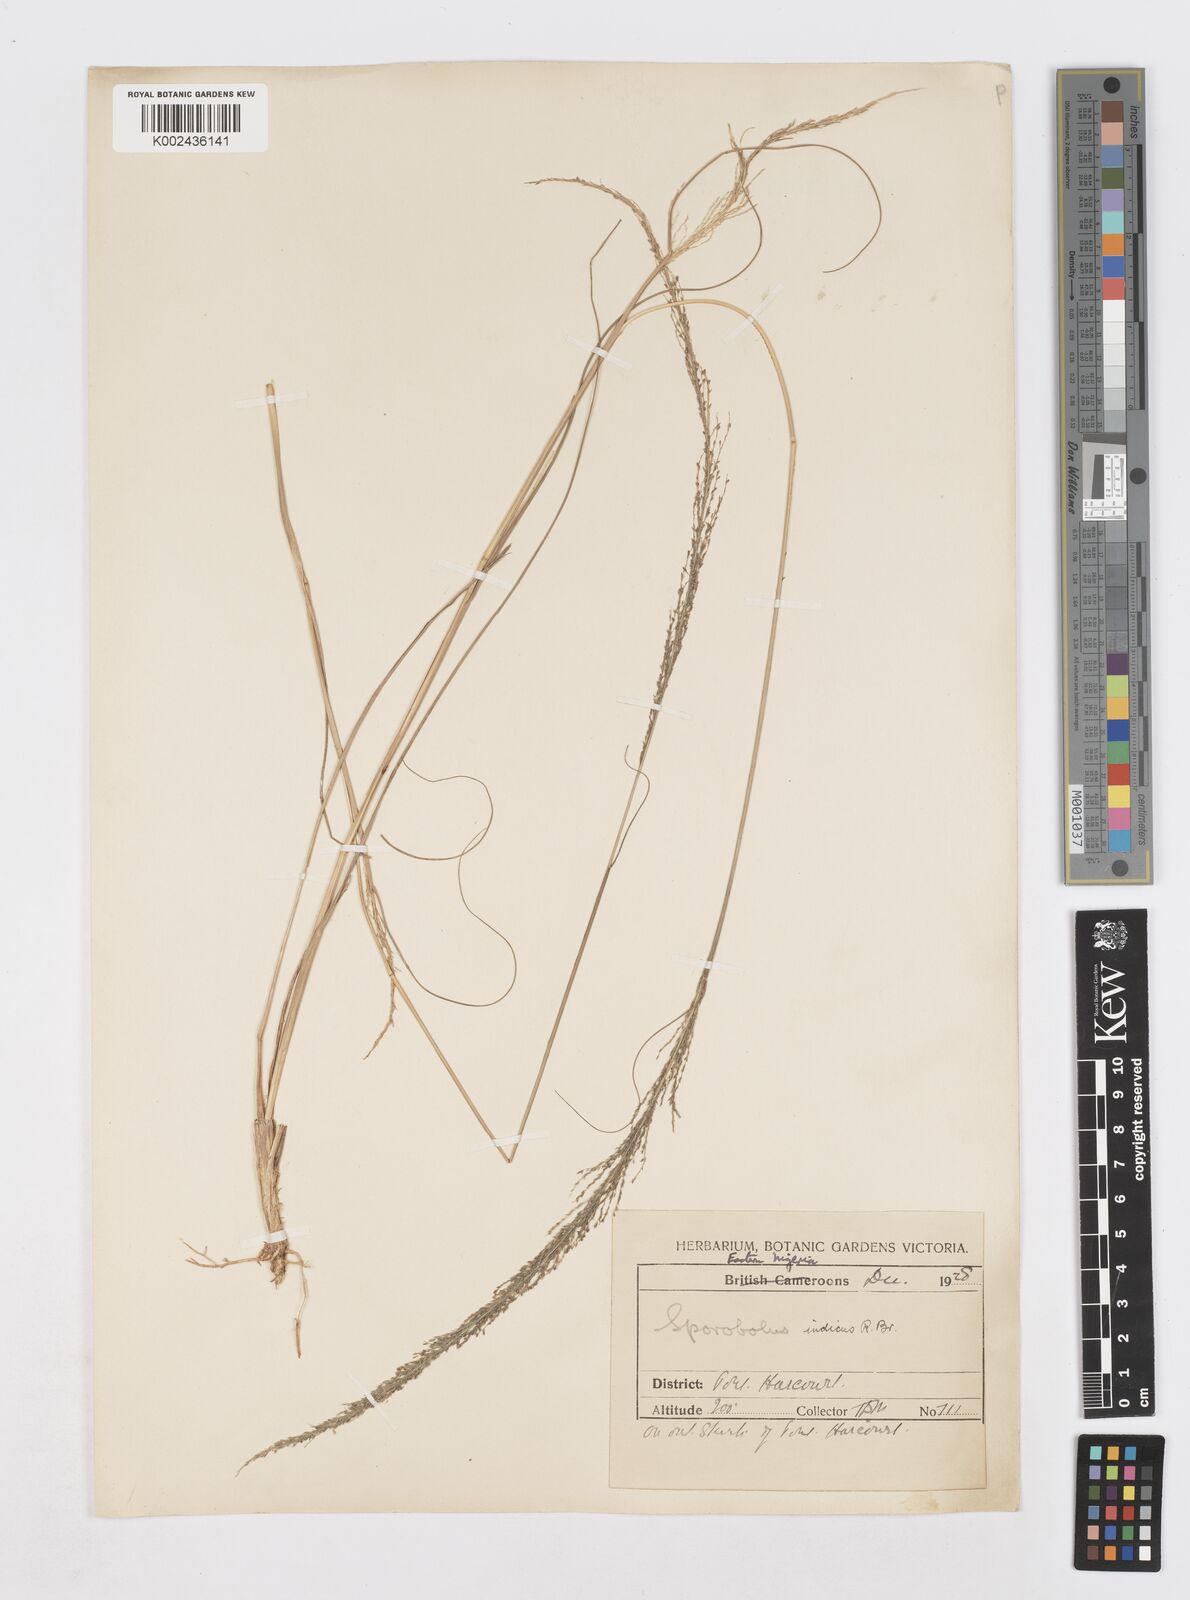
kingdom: Plantae
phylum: Tracheophyta
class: Liliopsida
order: Poales
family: Poaceae
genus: Sporobolus
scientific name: Sporobolus pyramidalis
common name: West indian dropseed
